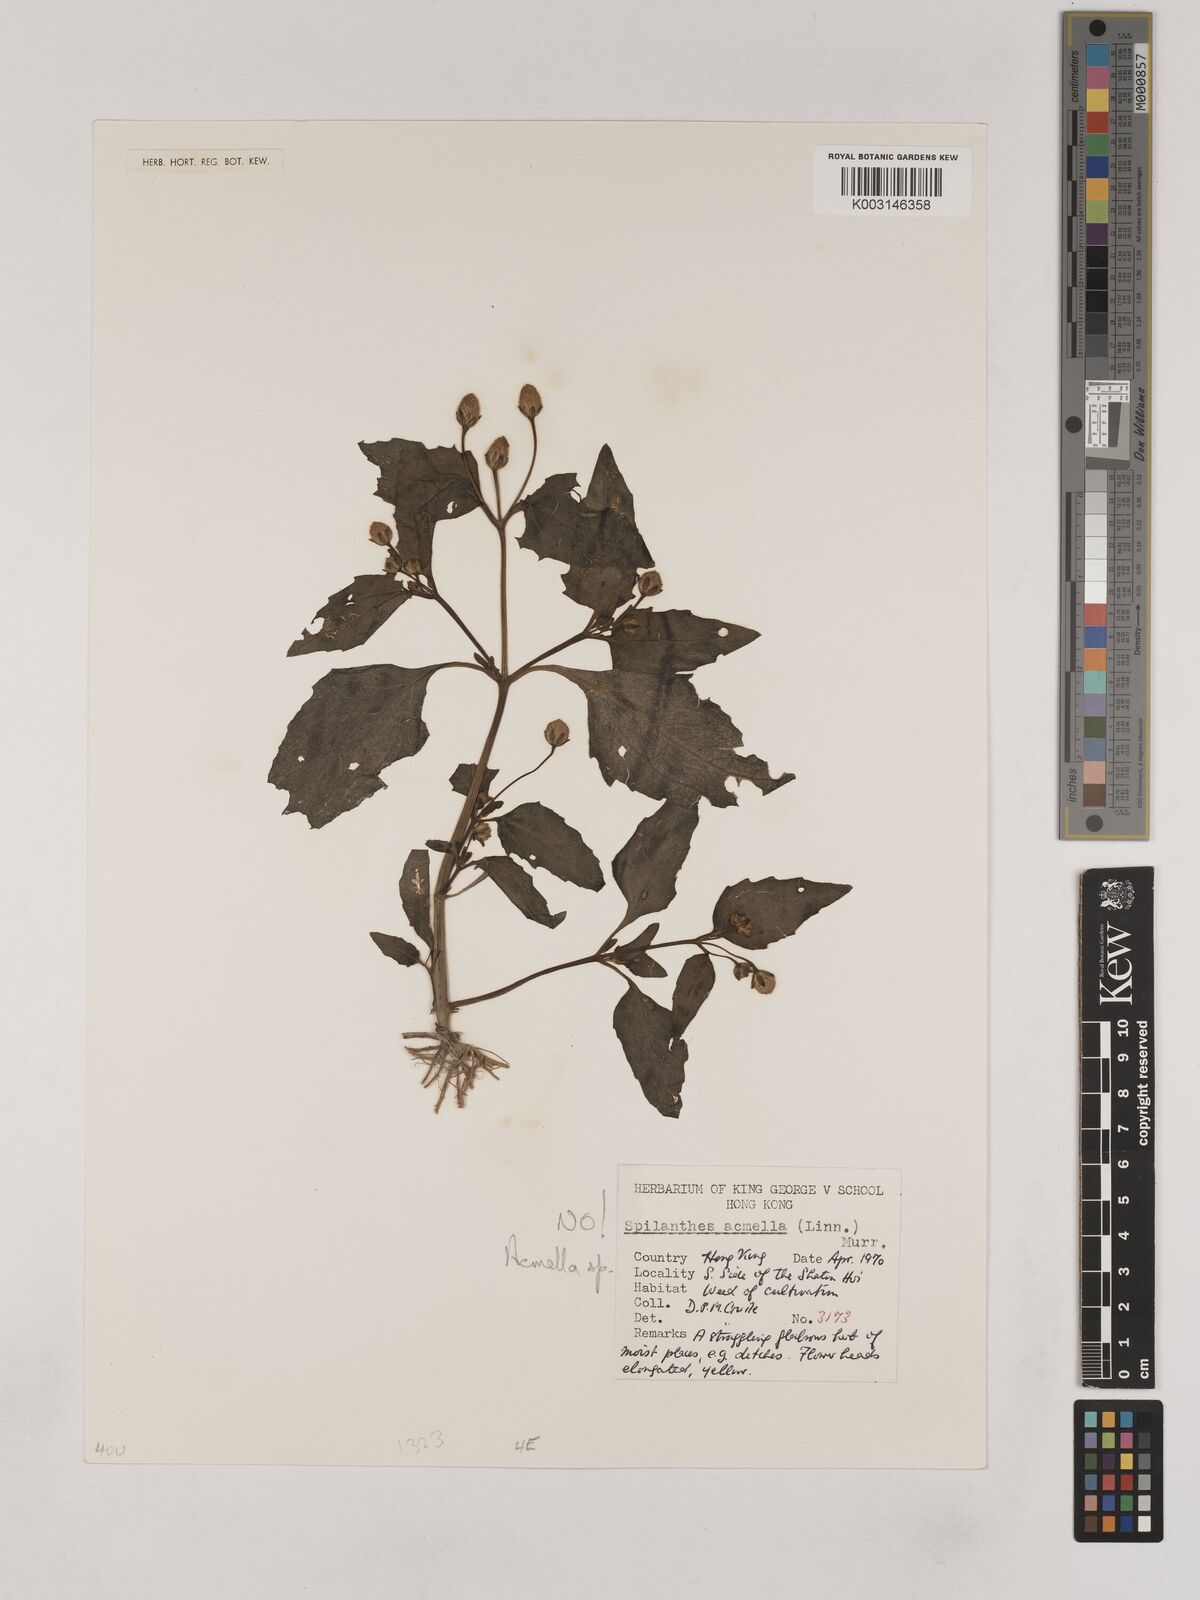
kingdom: Plantae
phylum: Tracheophyta
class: Magnoliopsida
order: Asterales
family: Asteraceae
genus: Acmella
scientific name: Acmella
